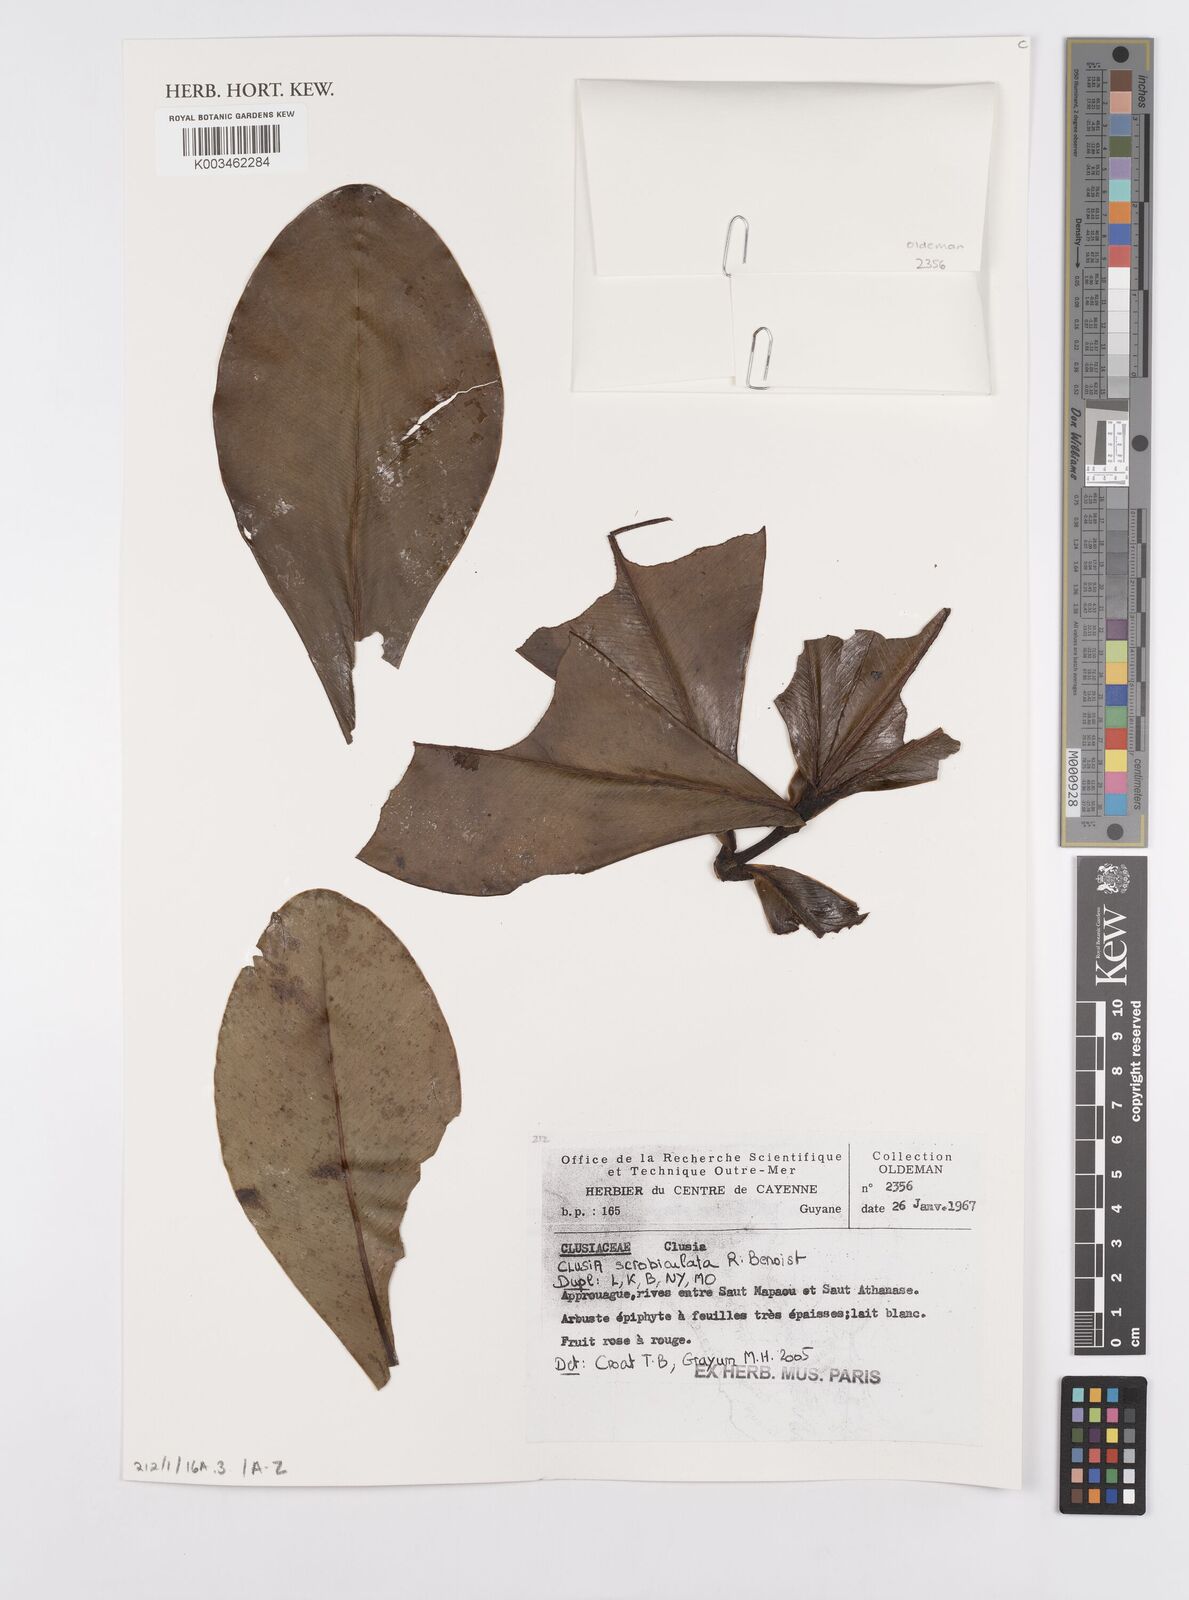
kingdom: Plantae
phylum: Tracheophyta
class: Magnoliopsida
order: Malpighiales
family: Clusiaceae
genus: Clusia
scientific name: Clusia scrobiculata
